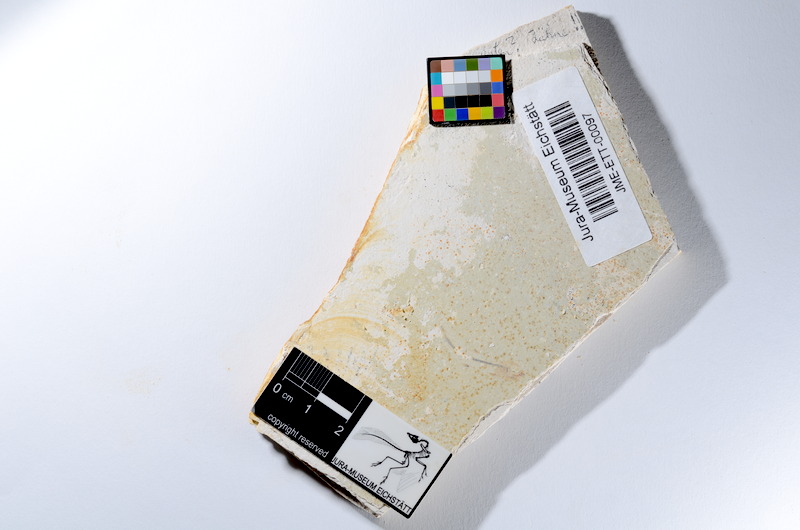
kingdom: Animalia
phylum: Chordata
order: Salmoniformes
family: Orthogonikleithridae
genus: Orthogonikleithrus
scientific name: Orthogonikleithrus hoelli
